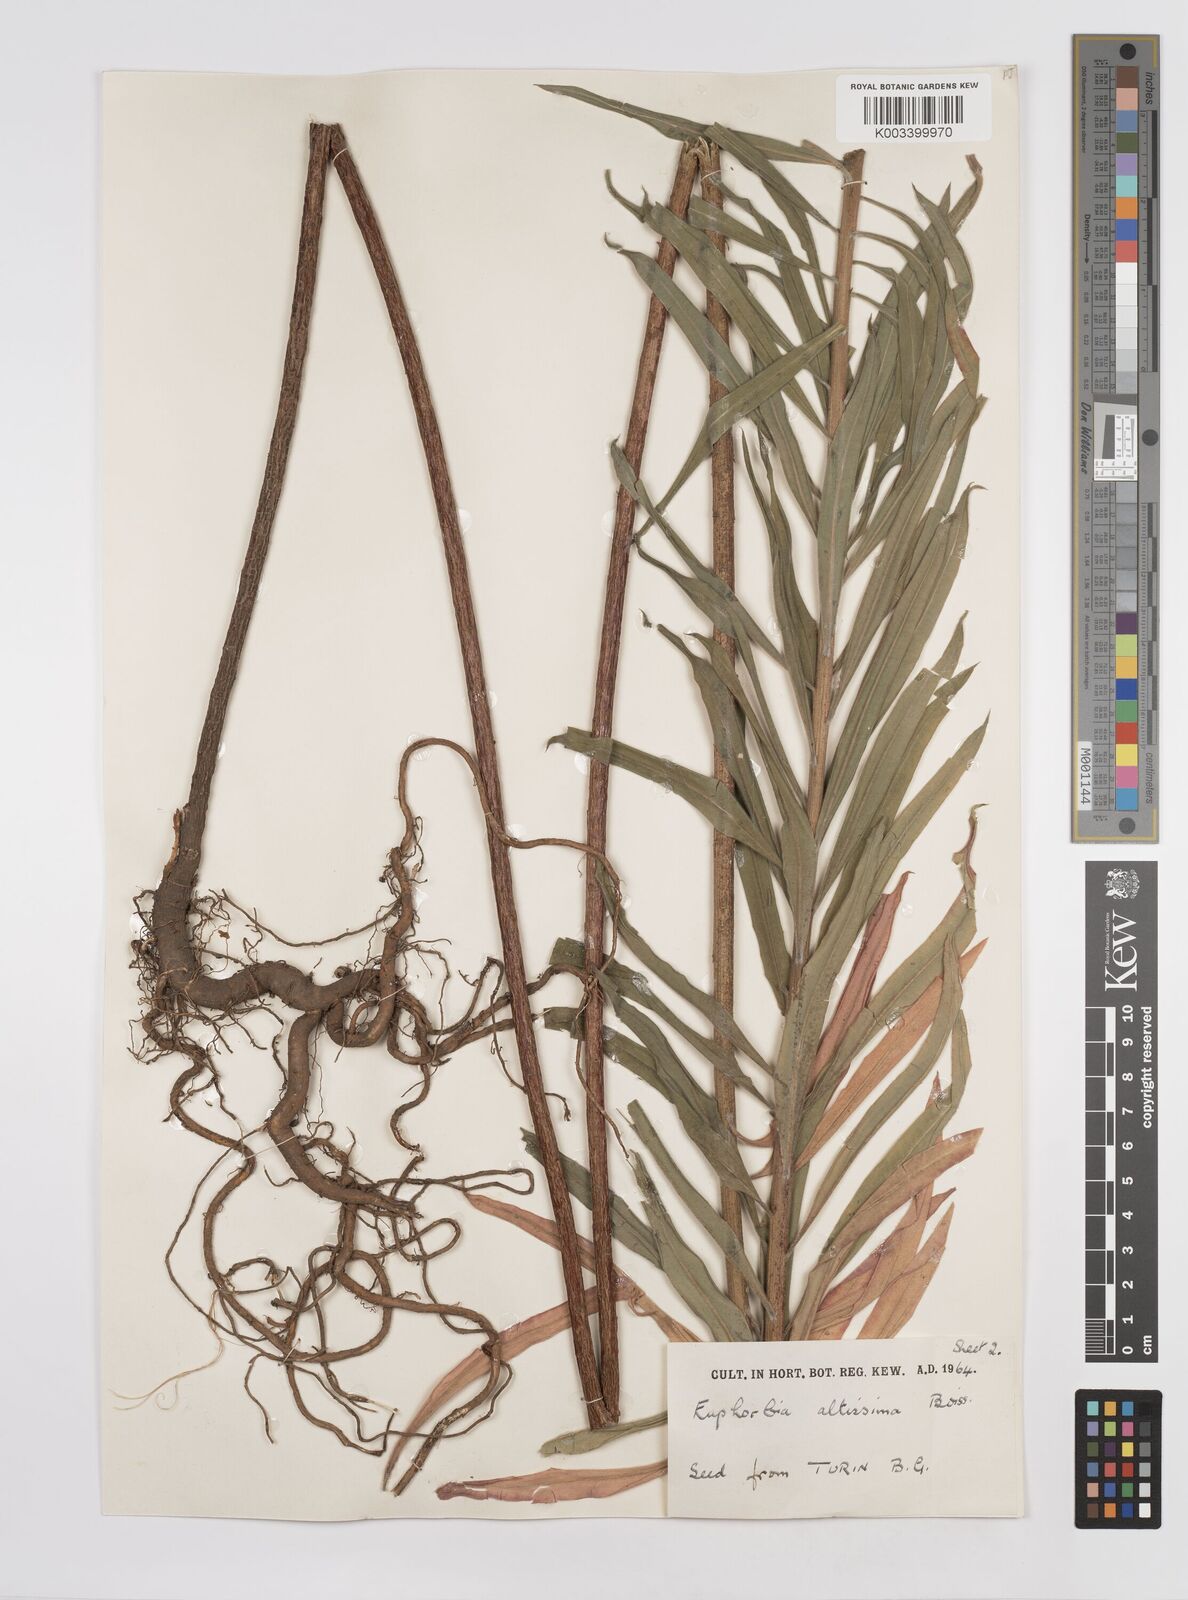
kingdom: Plantae
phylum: Tracheophyta
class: Magnoliopsida
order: Malpighiales
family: Euphorbiaceae
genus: Euphorbia
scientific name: Euphorbia altissima
